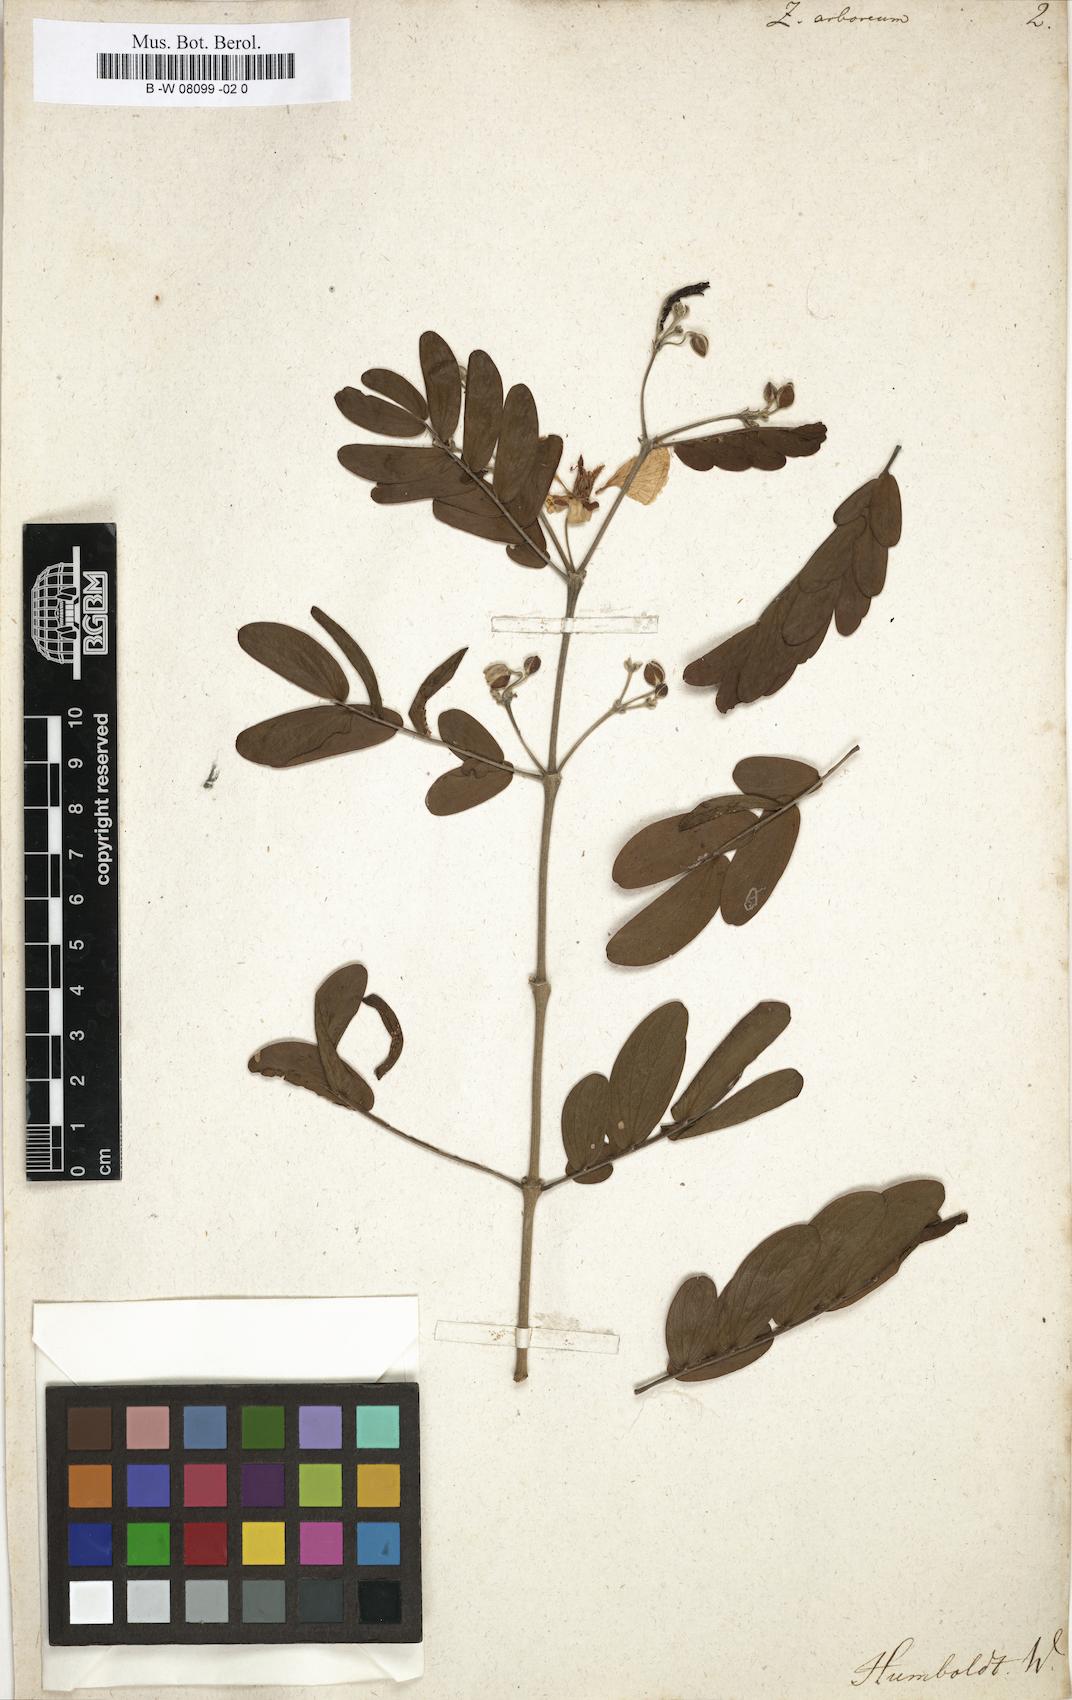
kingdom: Plantae
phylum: Tracheophyta
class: Magnoliopsida
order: Zygophyllales
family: Zygophyllaceae
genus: Gonopterodendron
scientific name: Gonopterodendron arboreum
